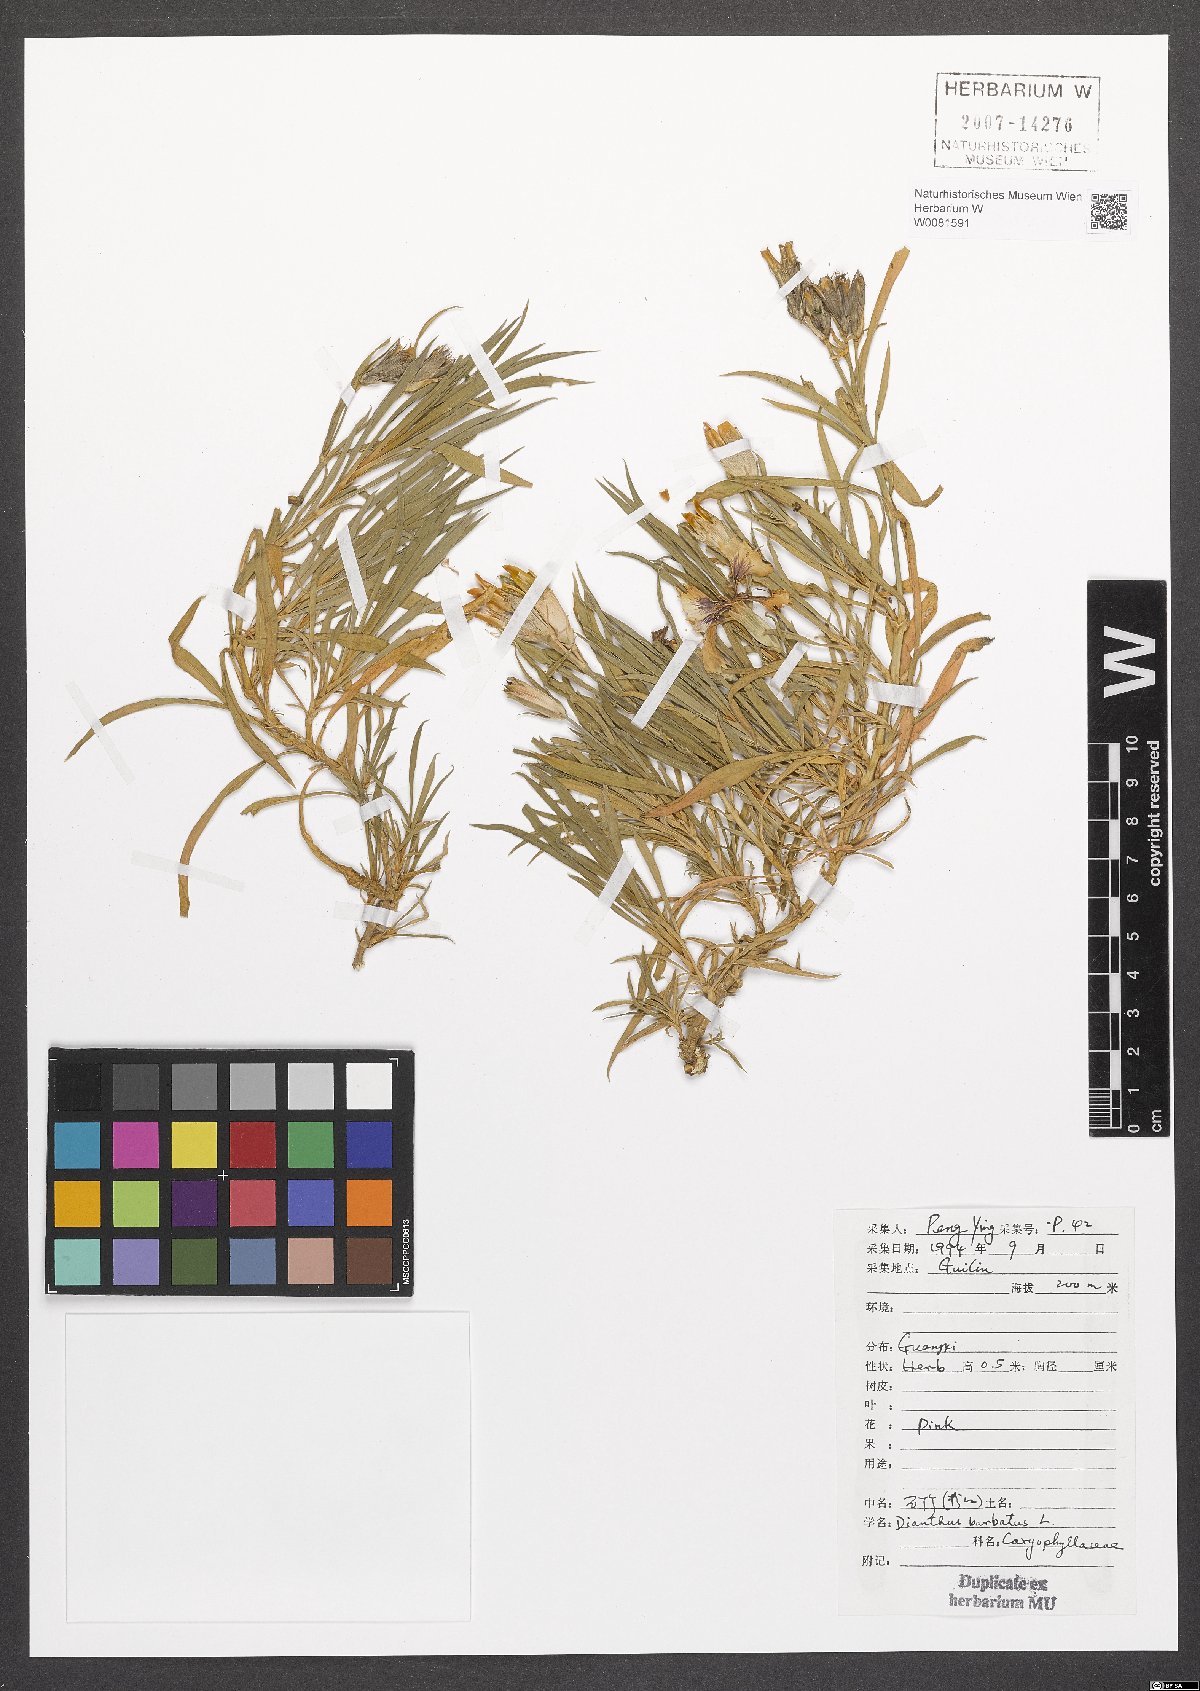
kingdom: Plantae
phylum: Tracheophyta
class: Magnoliopsida
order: Caryophyllales
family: Caryophyllaceae
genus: Dianthus
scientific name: Dianthus barbatus
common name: Sweet-william
